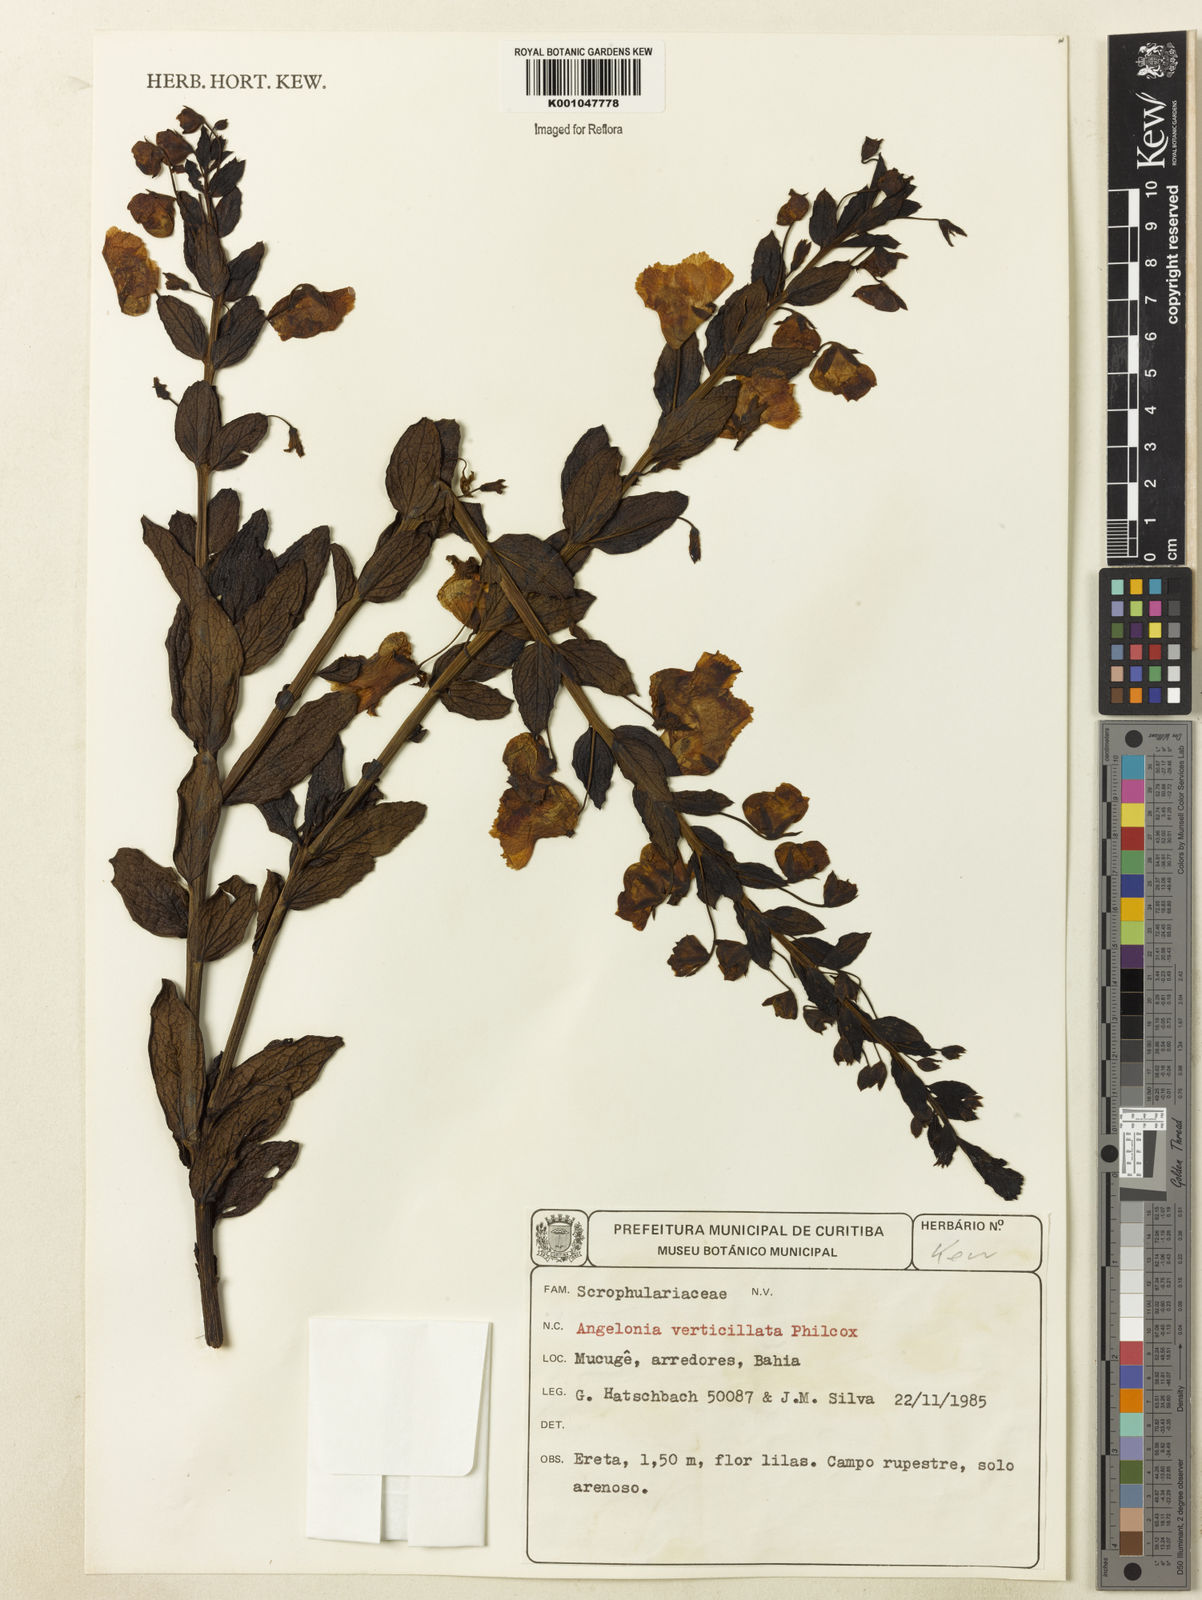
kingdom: Plantae
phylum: Tracheophyta
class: Magnoliopsida
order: Lamiales
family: Plantaginaceae
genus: Angelonia
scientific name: Angelonia verticillata
